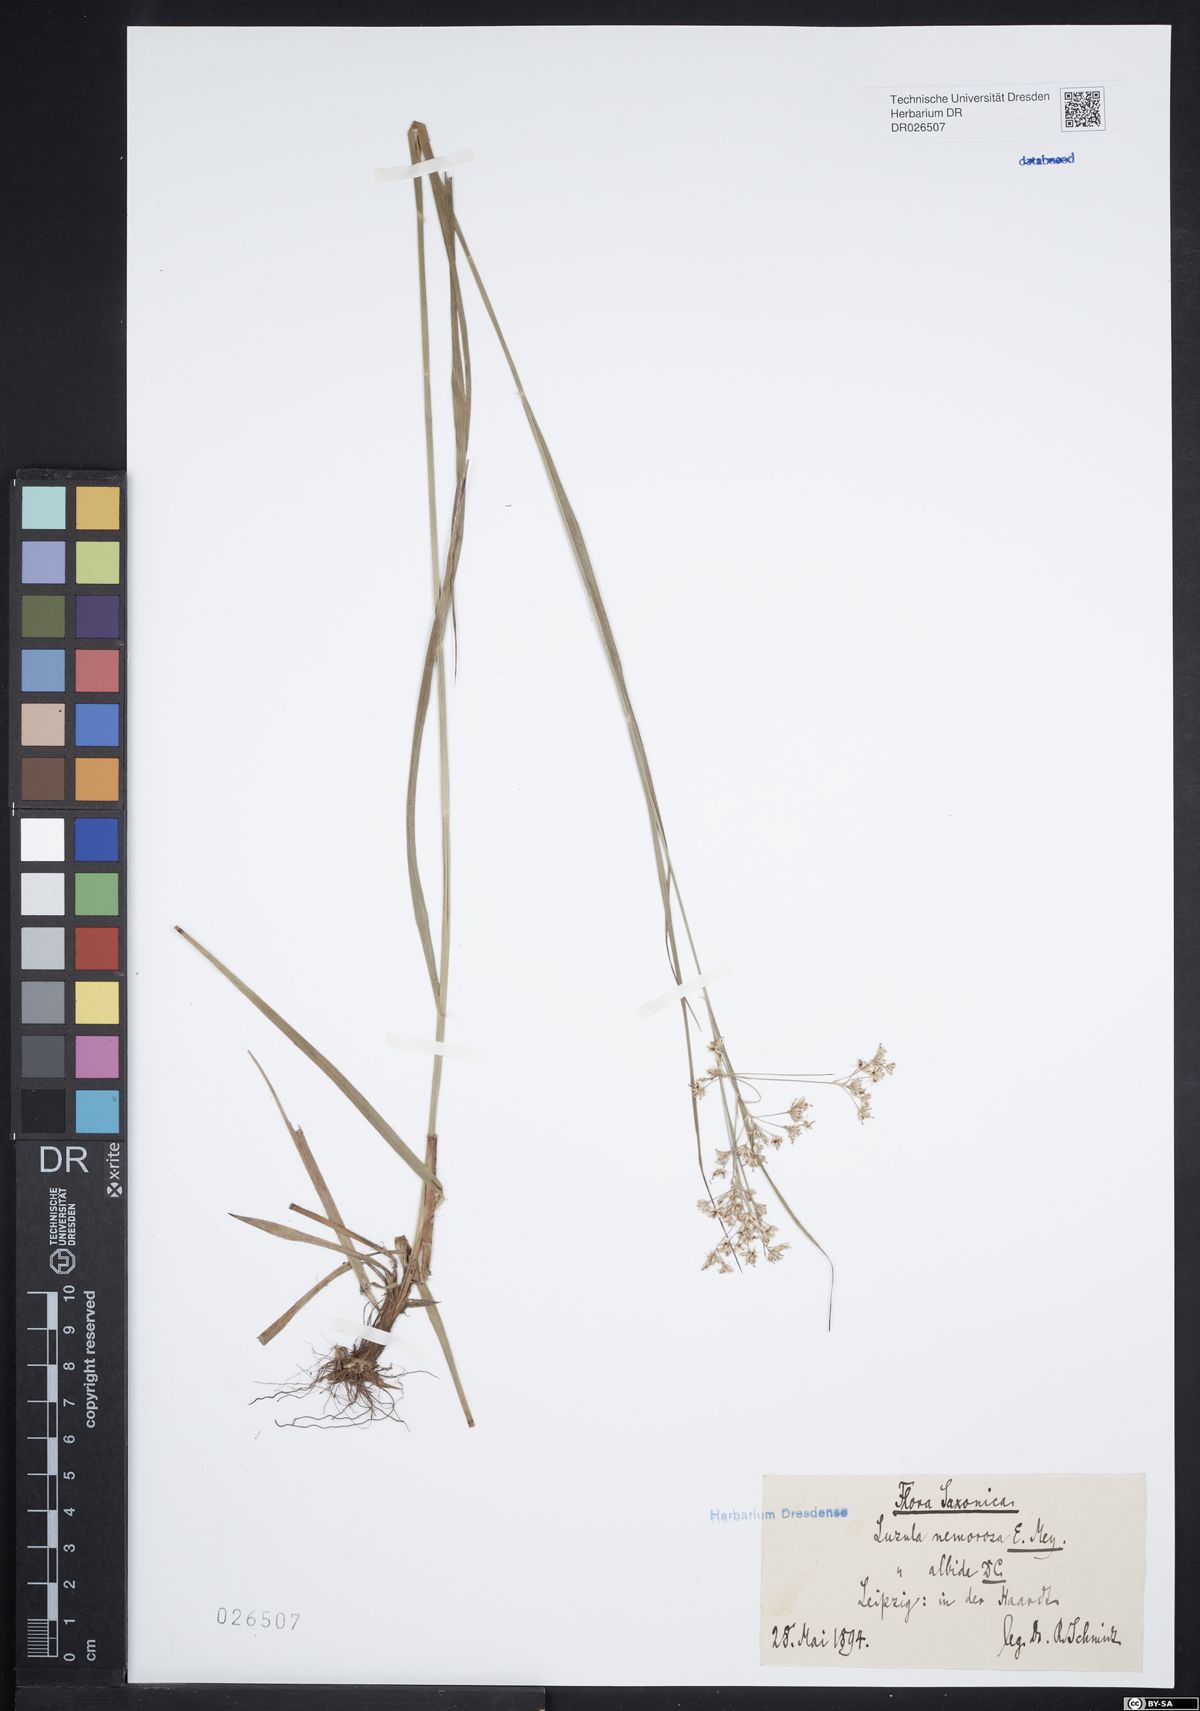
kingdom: Plantae
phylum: Tracheophyta
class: Liliopsida
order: Poales
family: Juncaceae
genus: Luzula
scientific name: Luzula luzuloides
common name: White wood-rush
